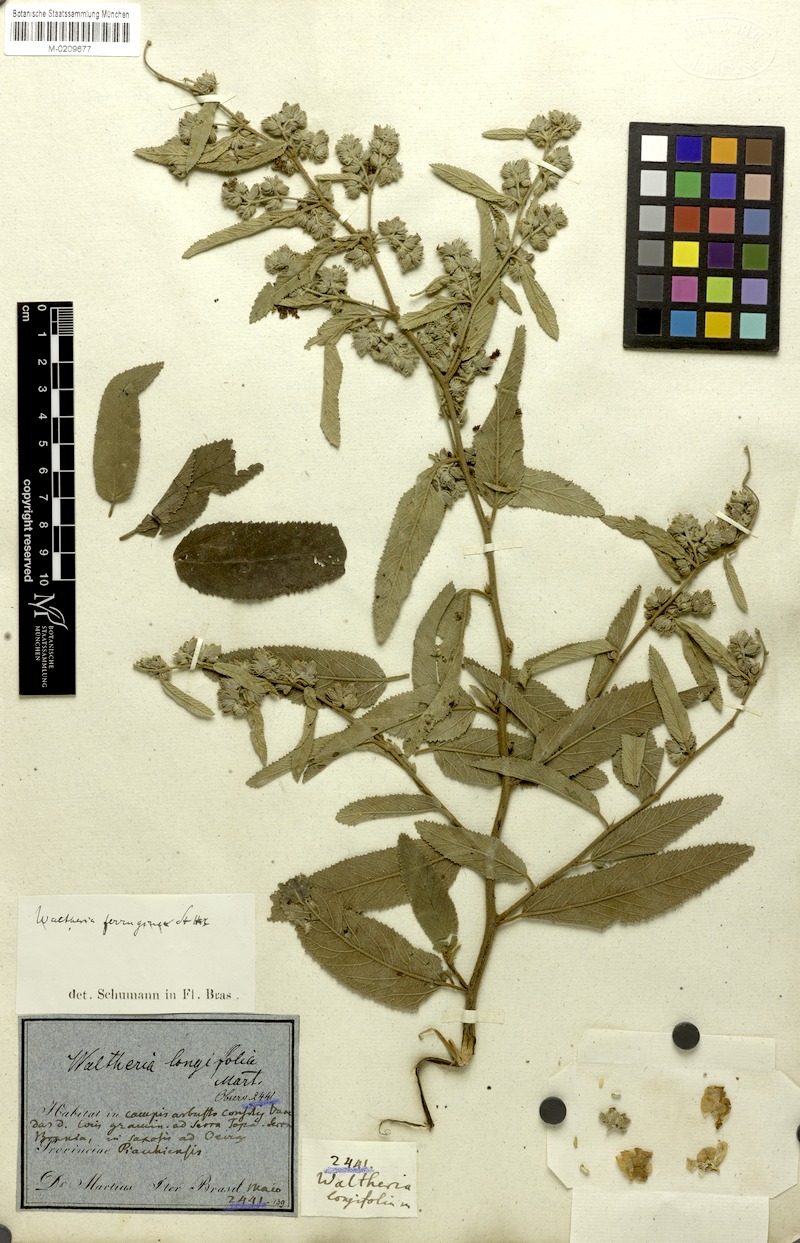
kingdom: Plantae
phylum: Tracheophyta
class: Magnoliopsida
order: Malvales
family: Malvaceae
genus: Waltheria
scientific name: Waltheria ferruginea
